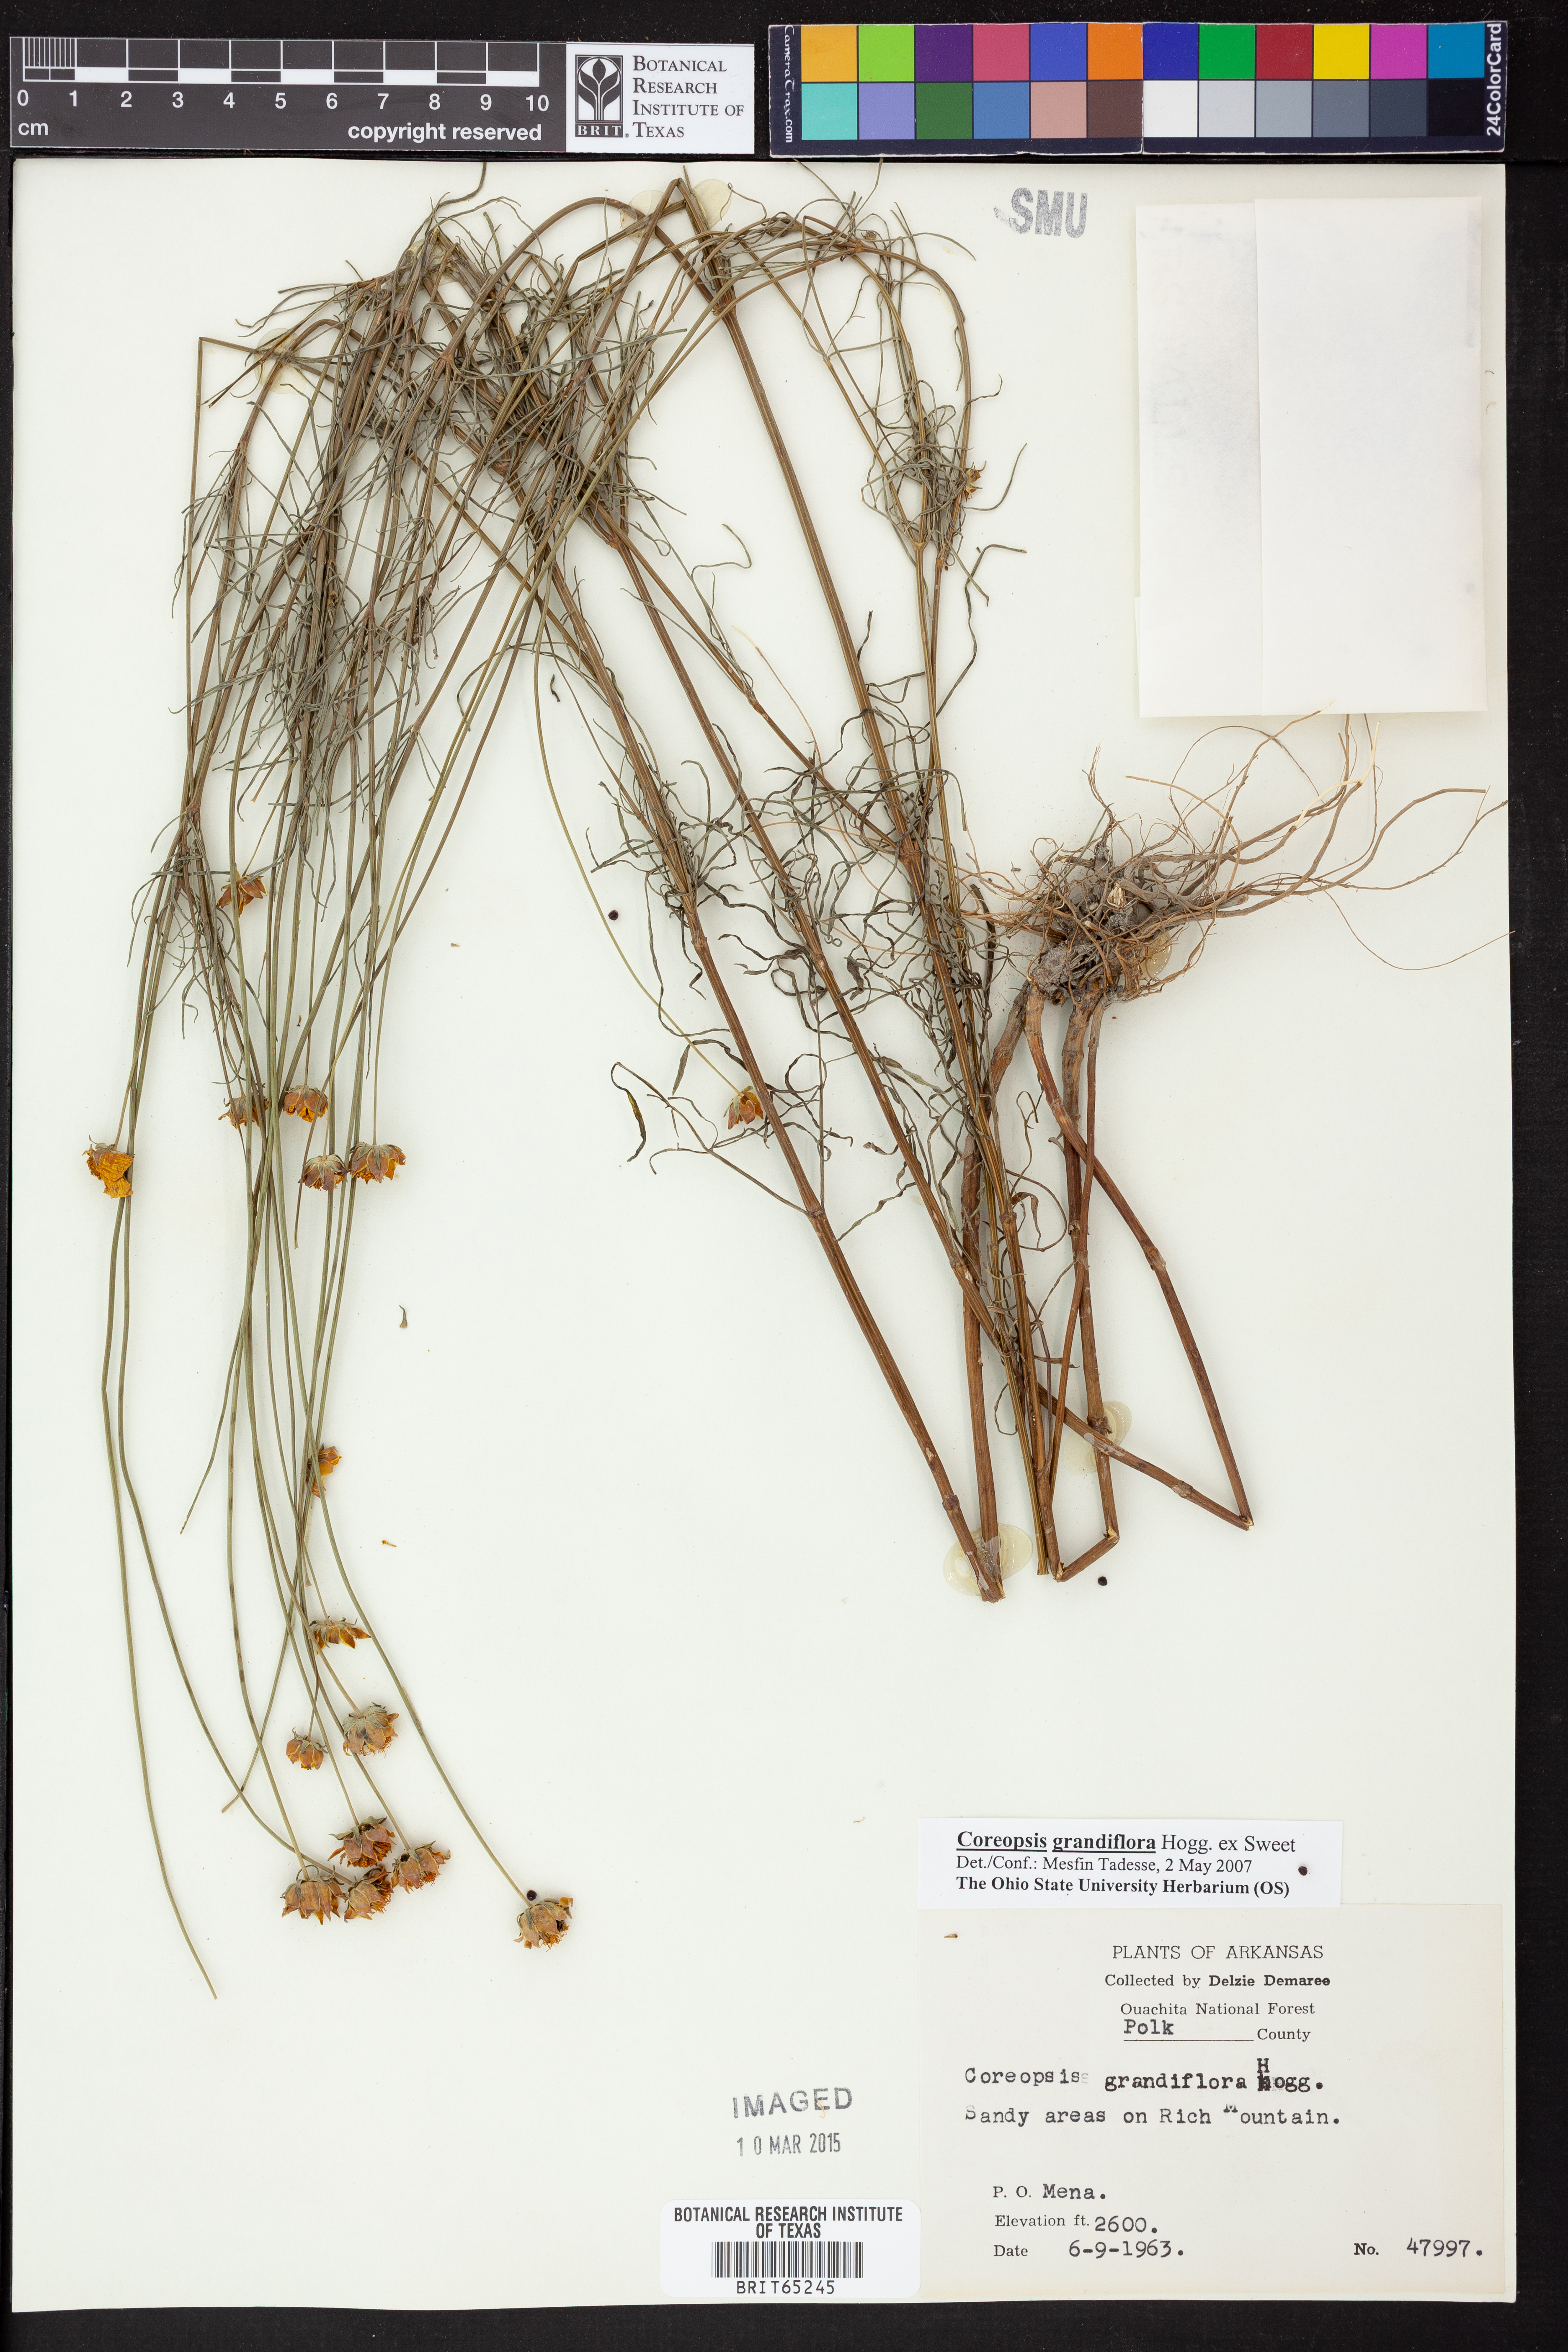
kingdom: Plantae
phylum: Tracheophyta
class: Magnoliopsida
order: Asterales
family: Asteraceae
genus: Coreopsis
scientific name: Coreopsis grandiflora
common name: Large-flowered tickseed
